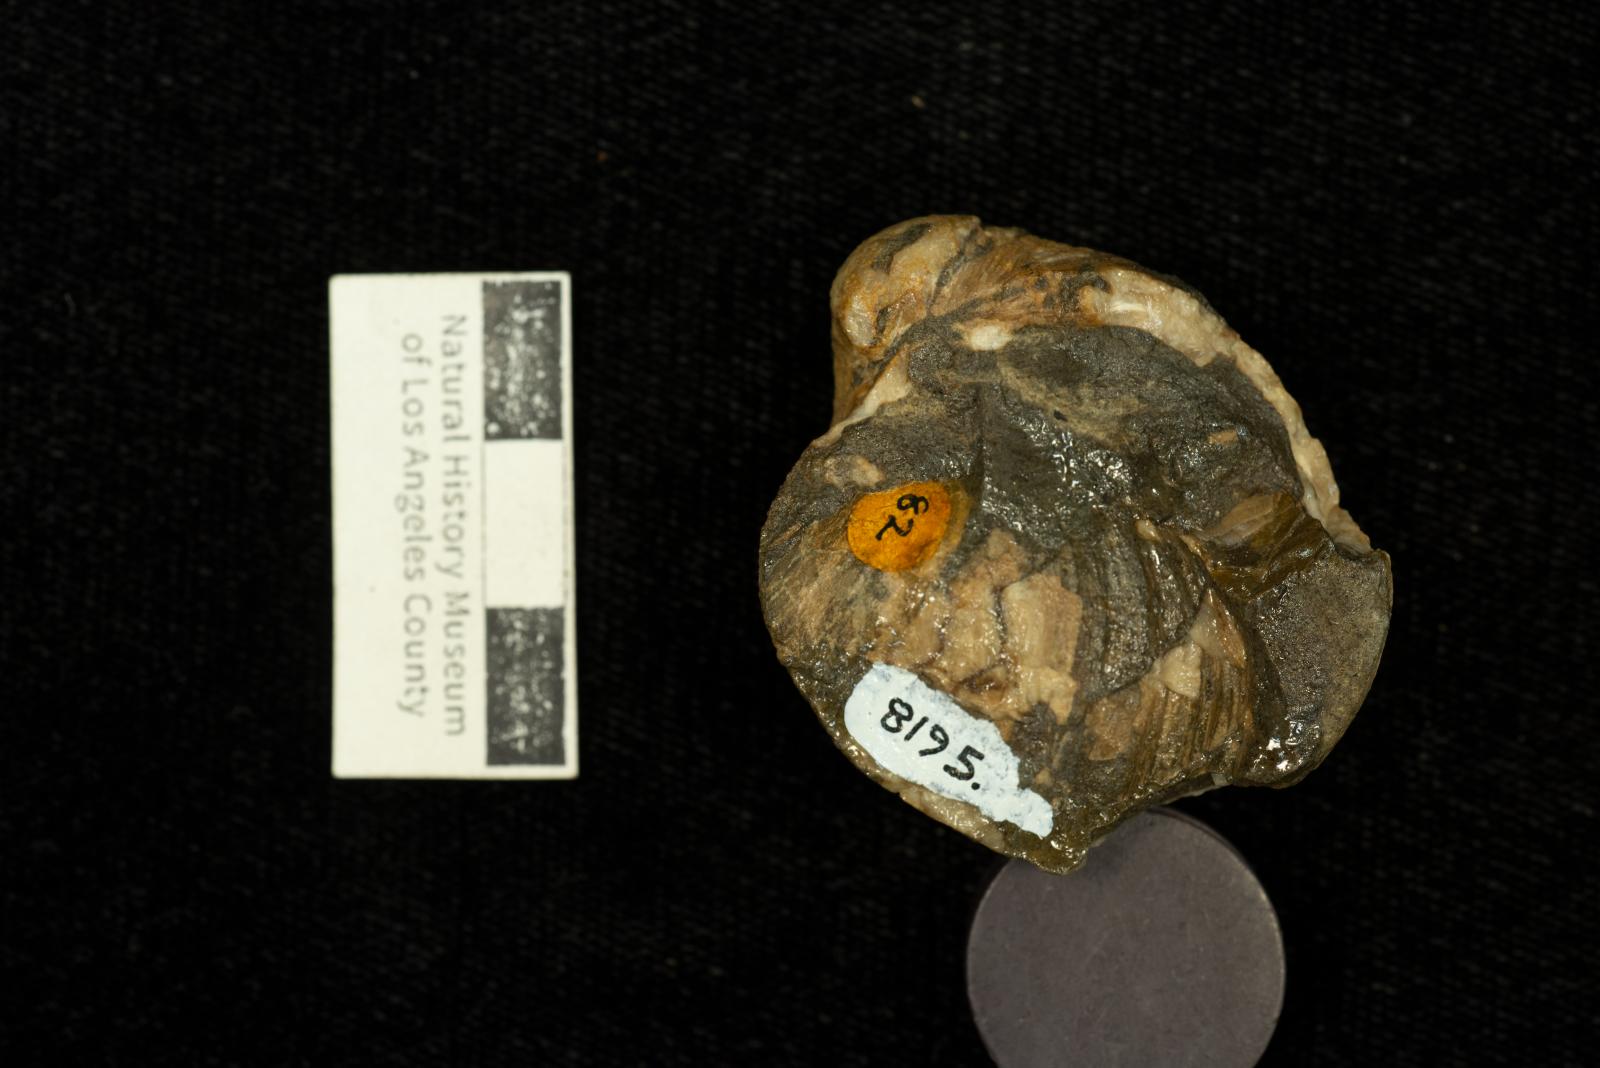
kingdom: Animalia
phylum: Mollusca
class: Bivalvia
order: Adapedonta
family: Edmondiidae
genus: Clisocolus
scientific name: Clisocolus corrugatus
